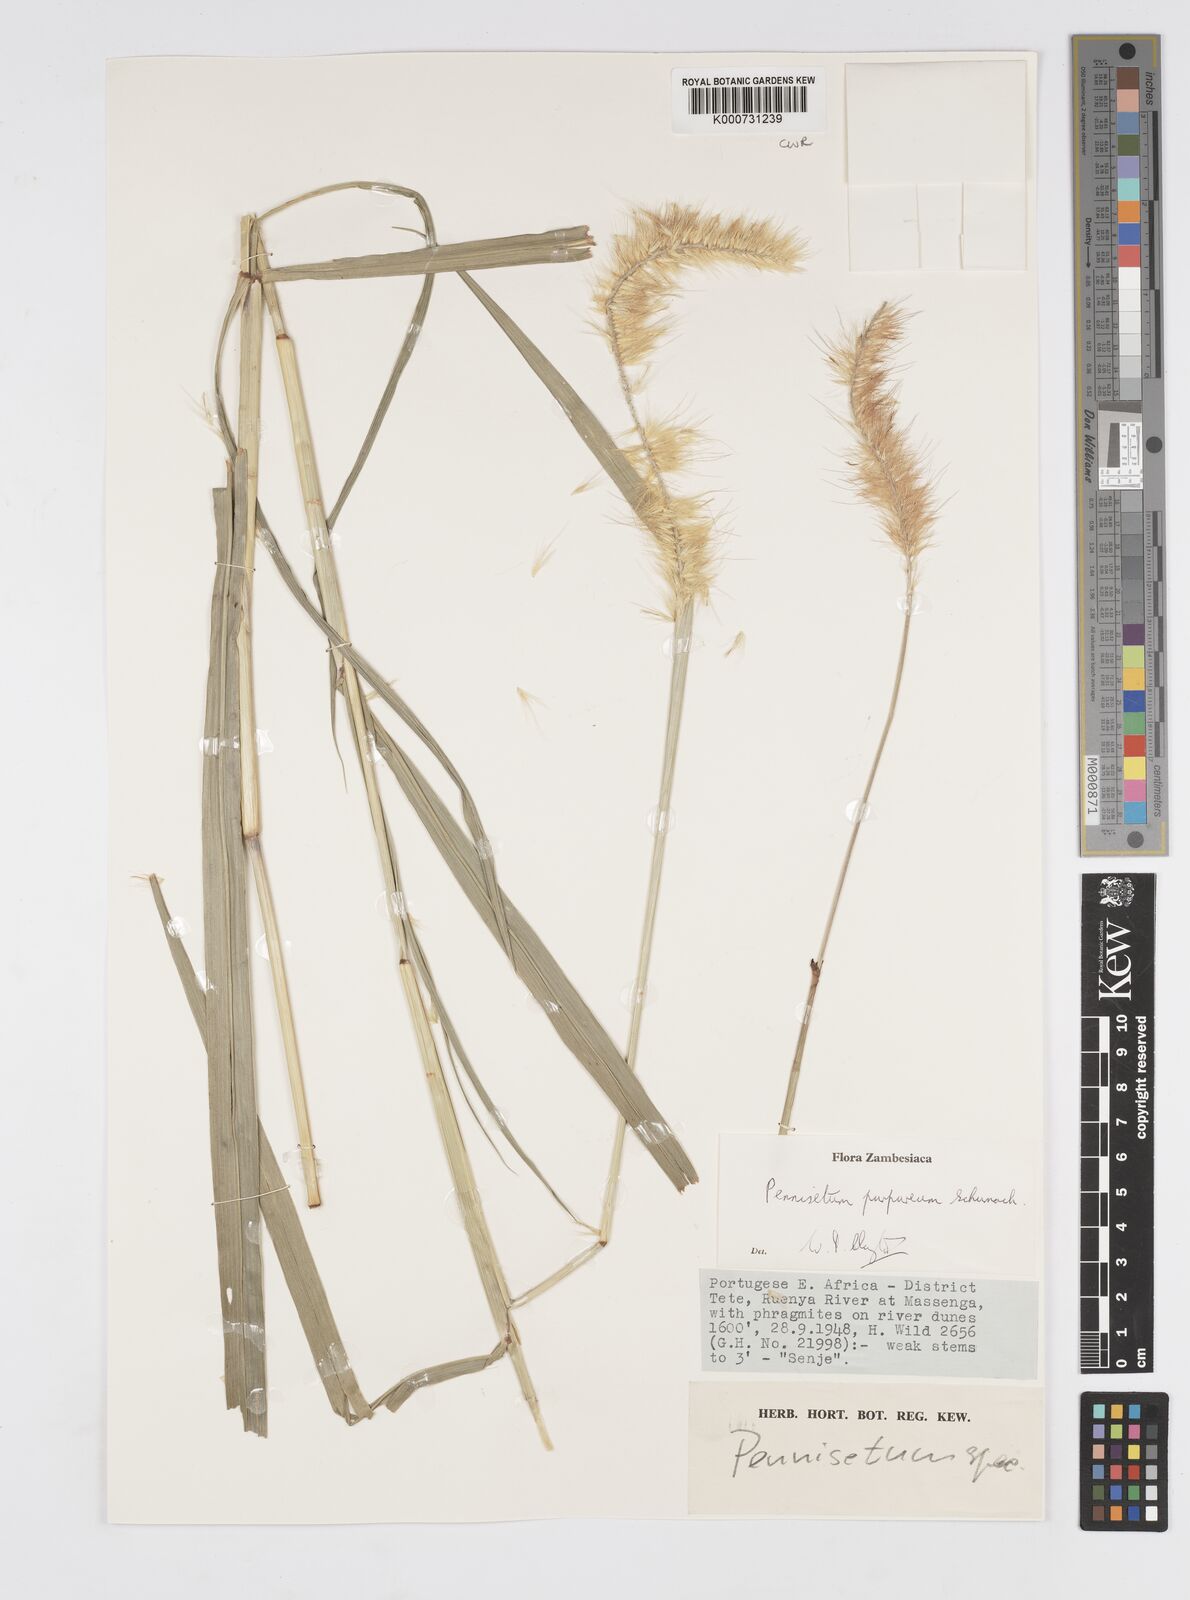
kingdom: Plantae
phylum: Tracheophyta
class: Liliopsida
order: Poales
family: Poaceae
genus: Cenchrus
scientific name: Cenchrus purpureus
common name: Elephant grass
